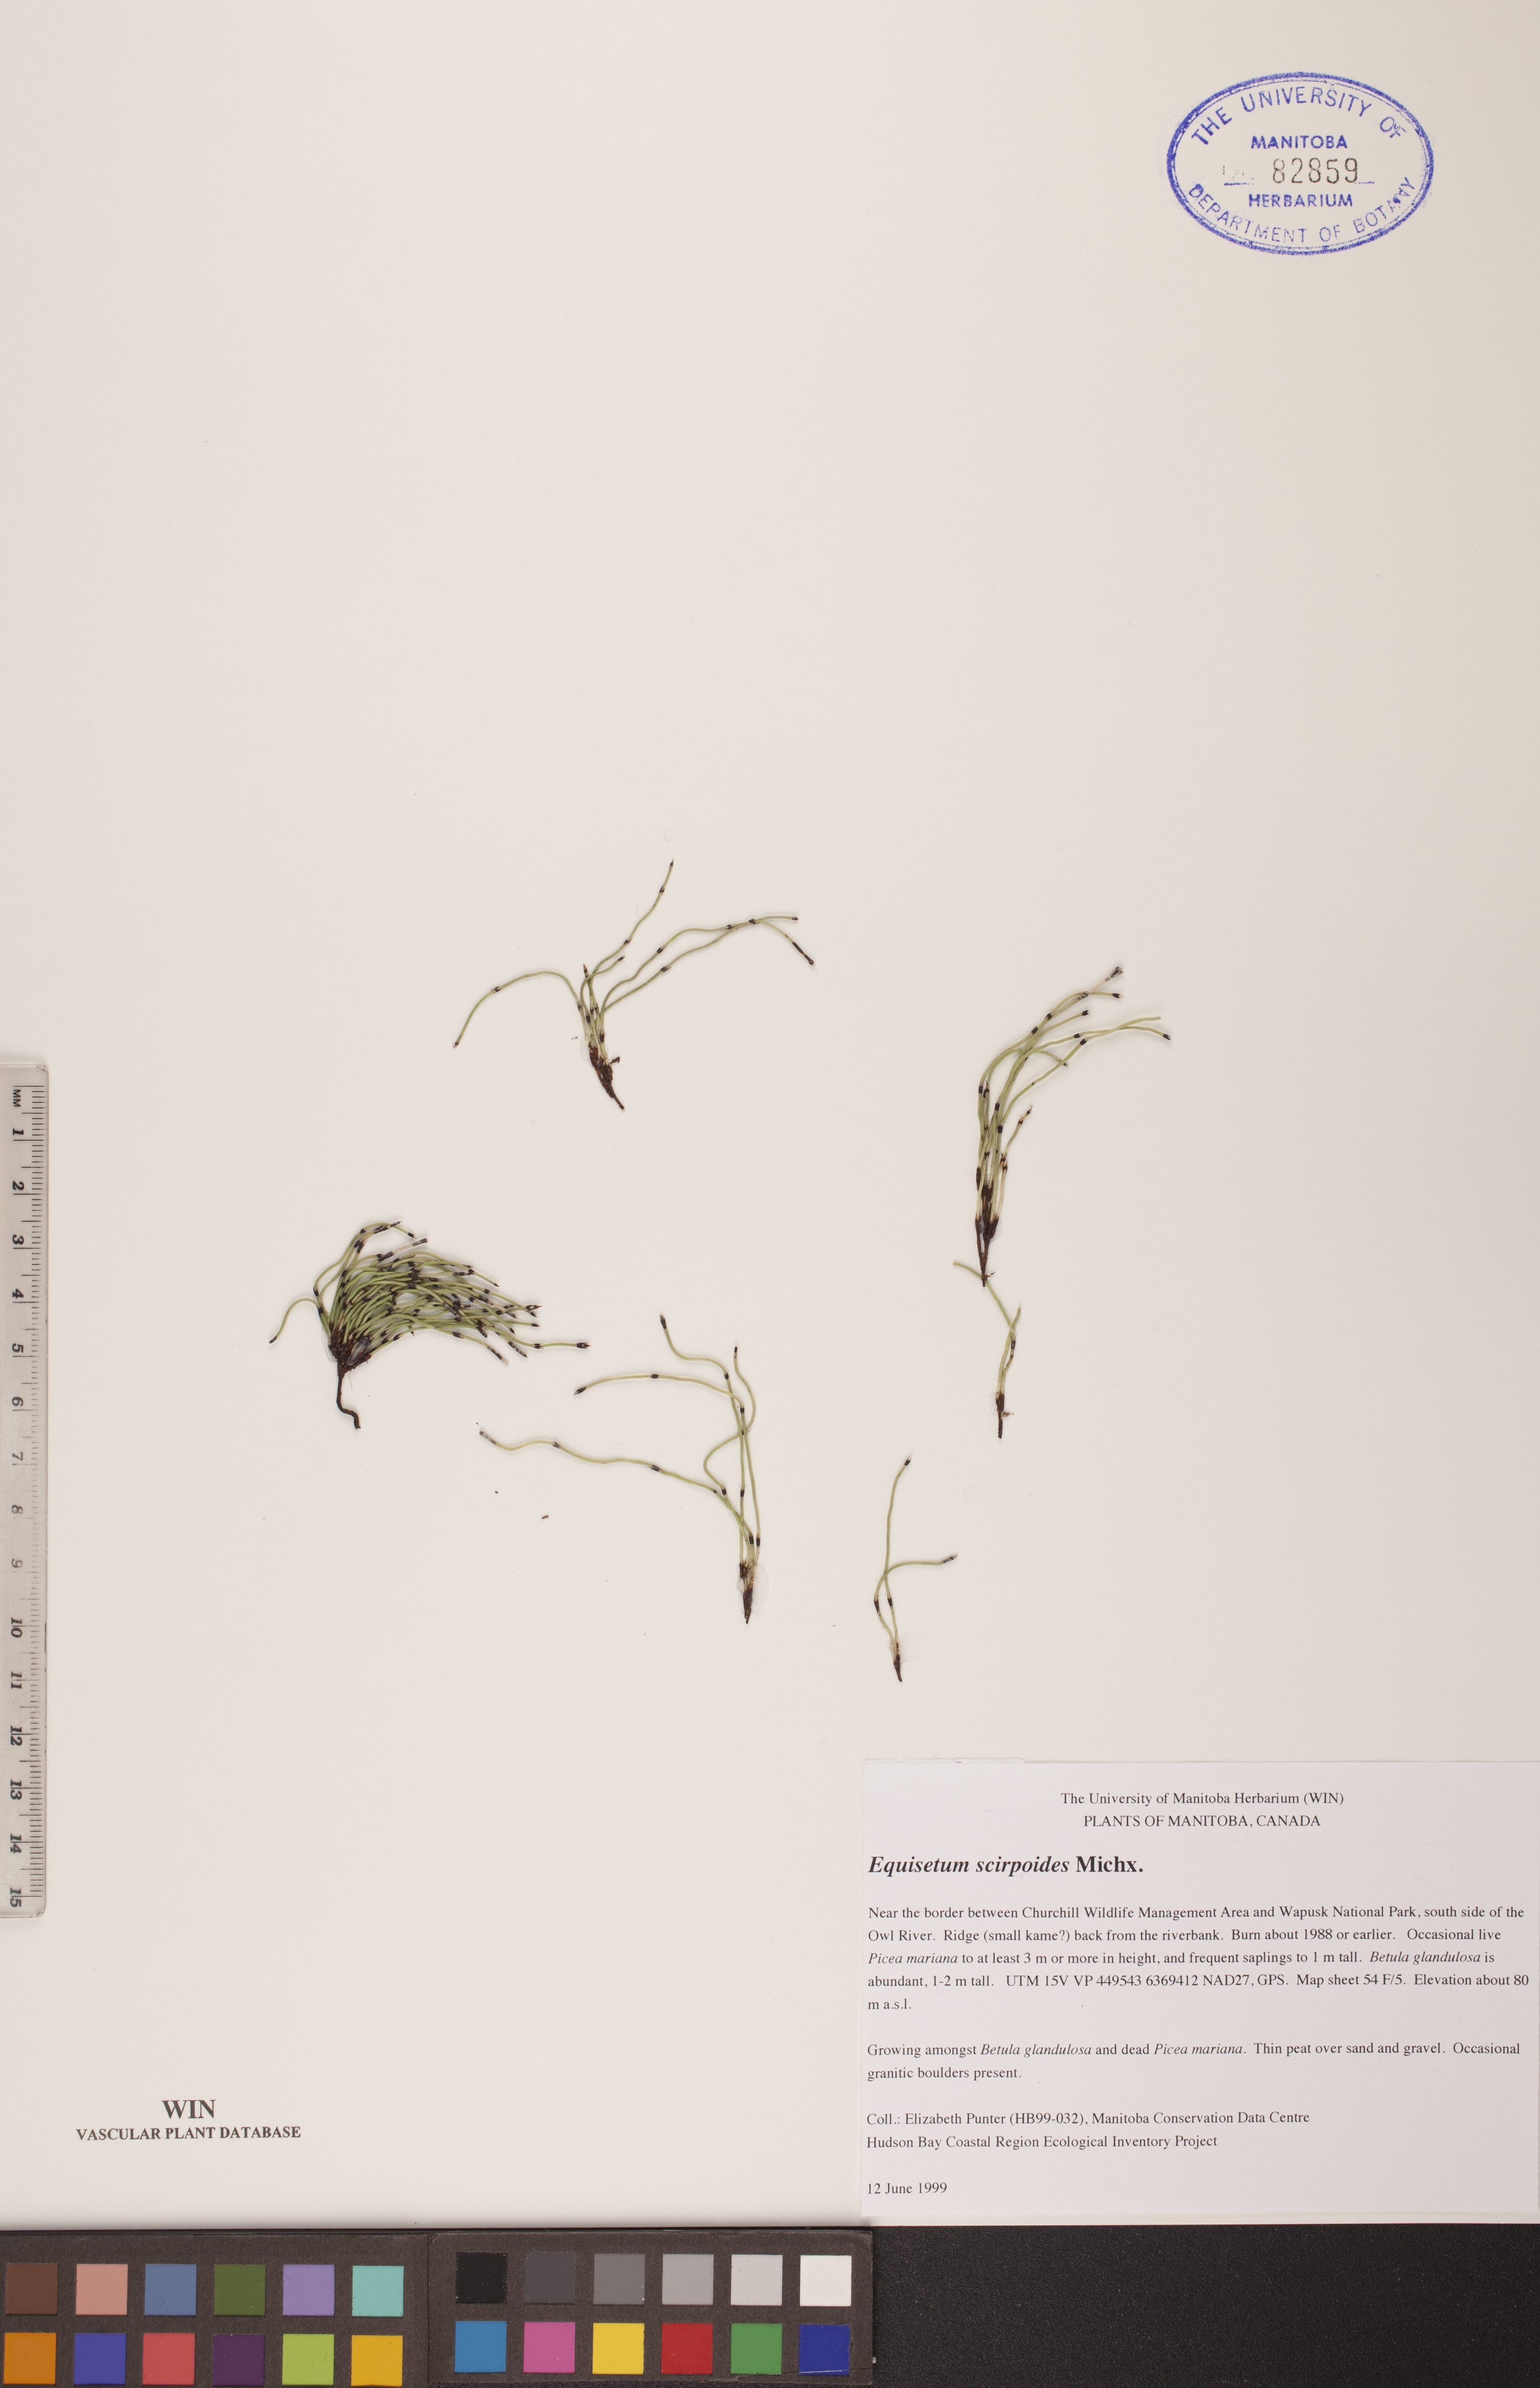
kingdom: Plantae
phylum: Tracheophyta
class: Polypodiopsida
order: Equisetales
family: Equisetaceae
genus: Equisetum
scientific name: Equisetum scirpoides
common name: Delicate horsetail
